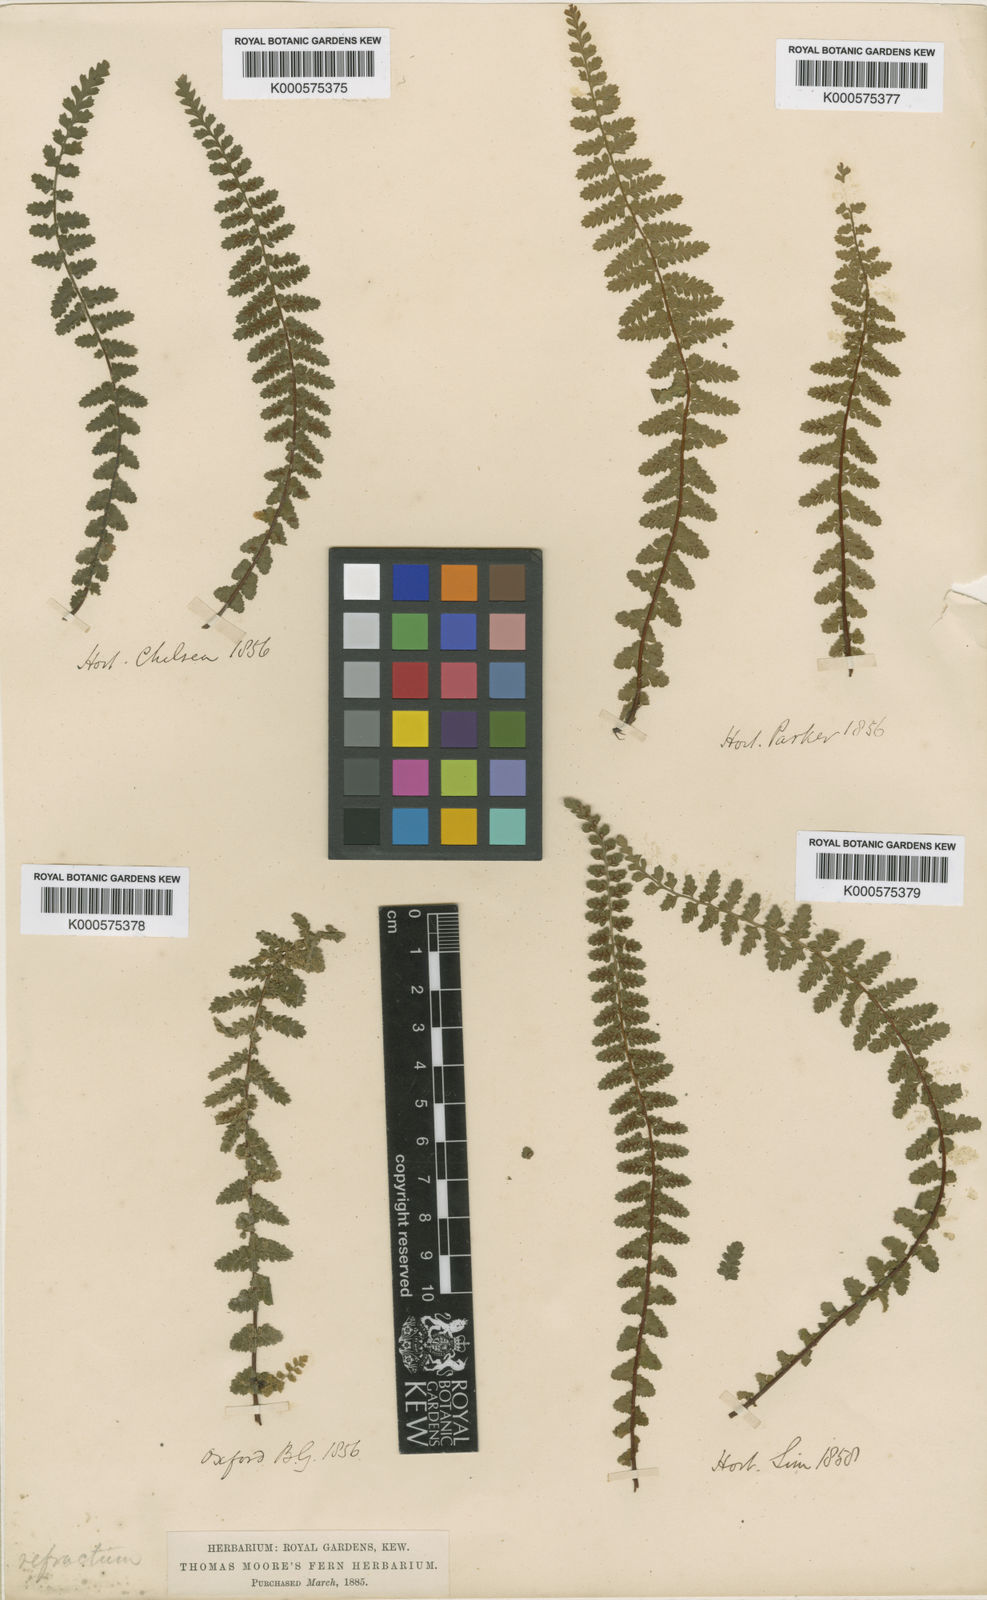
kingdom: Plantae
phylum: Tracheophyta
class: Polypodiopsida
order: Polypodiales
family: Aspleniaceae
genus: Asplenium
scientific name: Asplenium fontanum
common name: Fountain spleenwort
